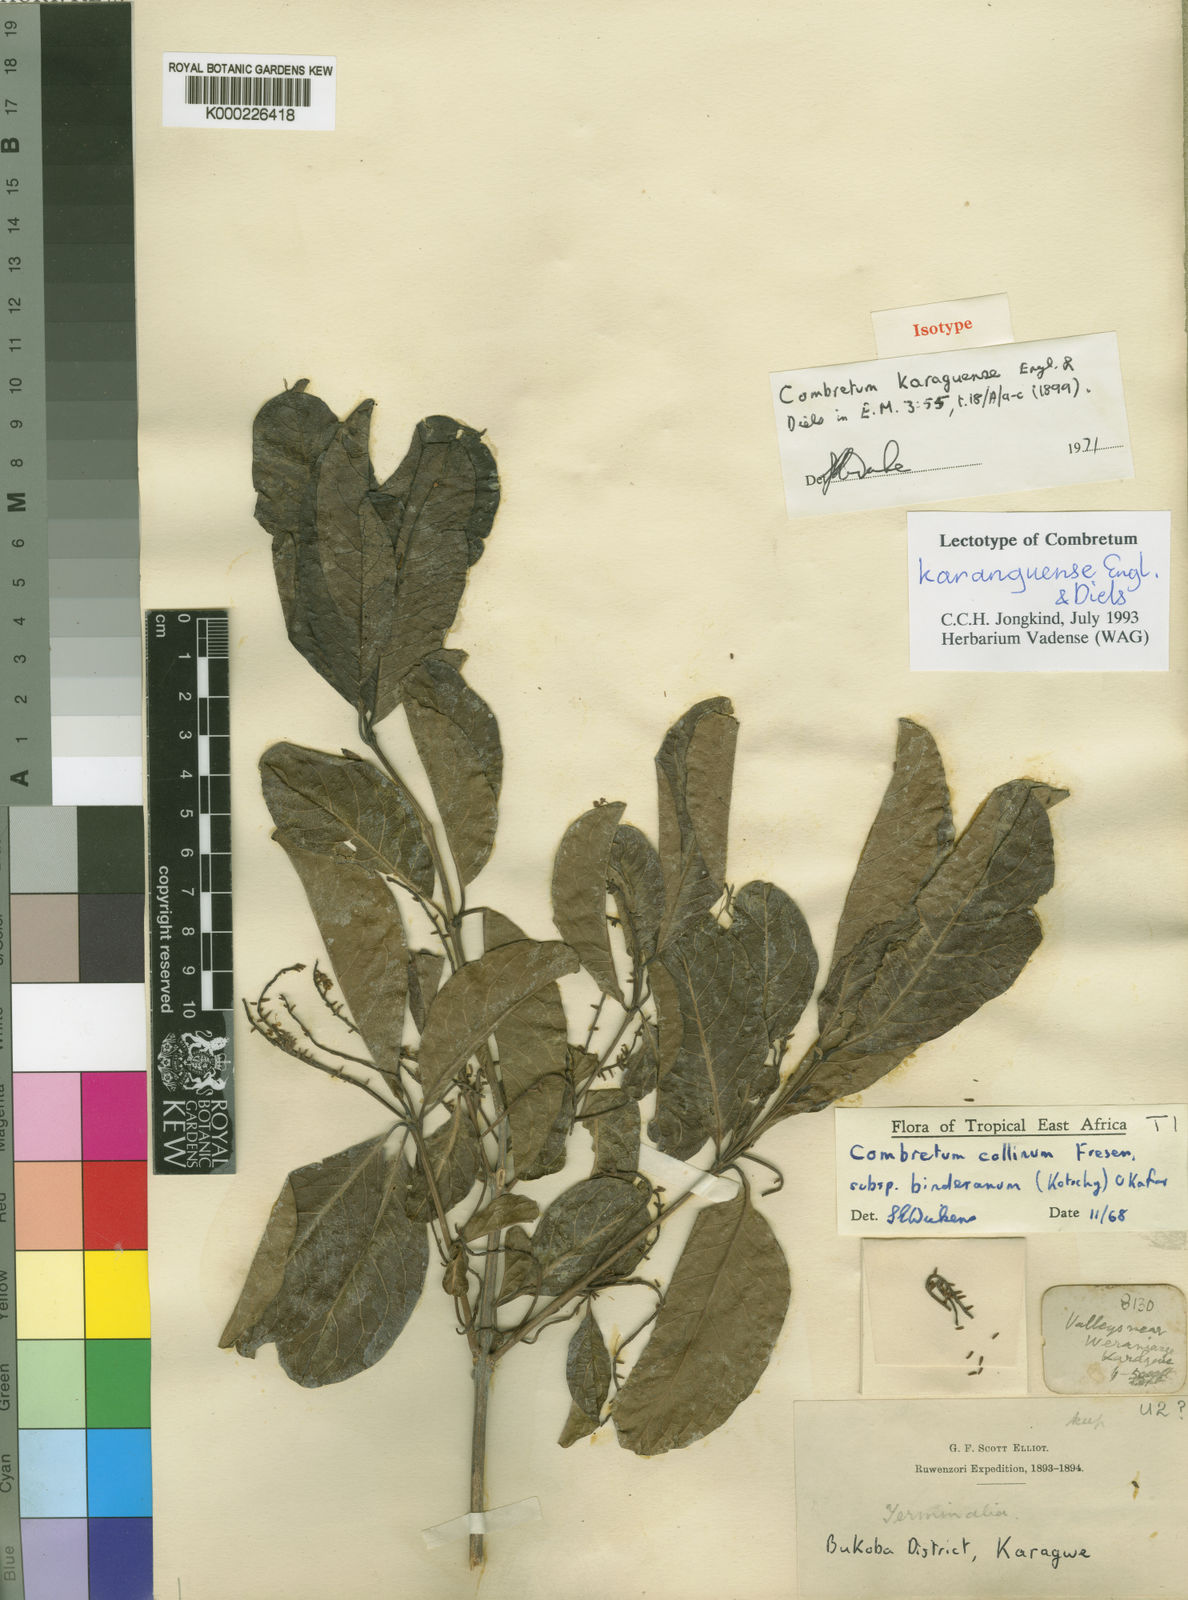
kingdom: Plantae
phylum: Tracheophyta
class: Magnoliopsida
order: Myrtales
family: Combretaceae
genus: Combretum
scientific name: Combretum collinum
